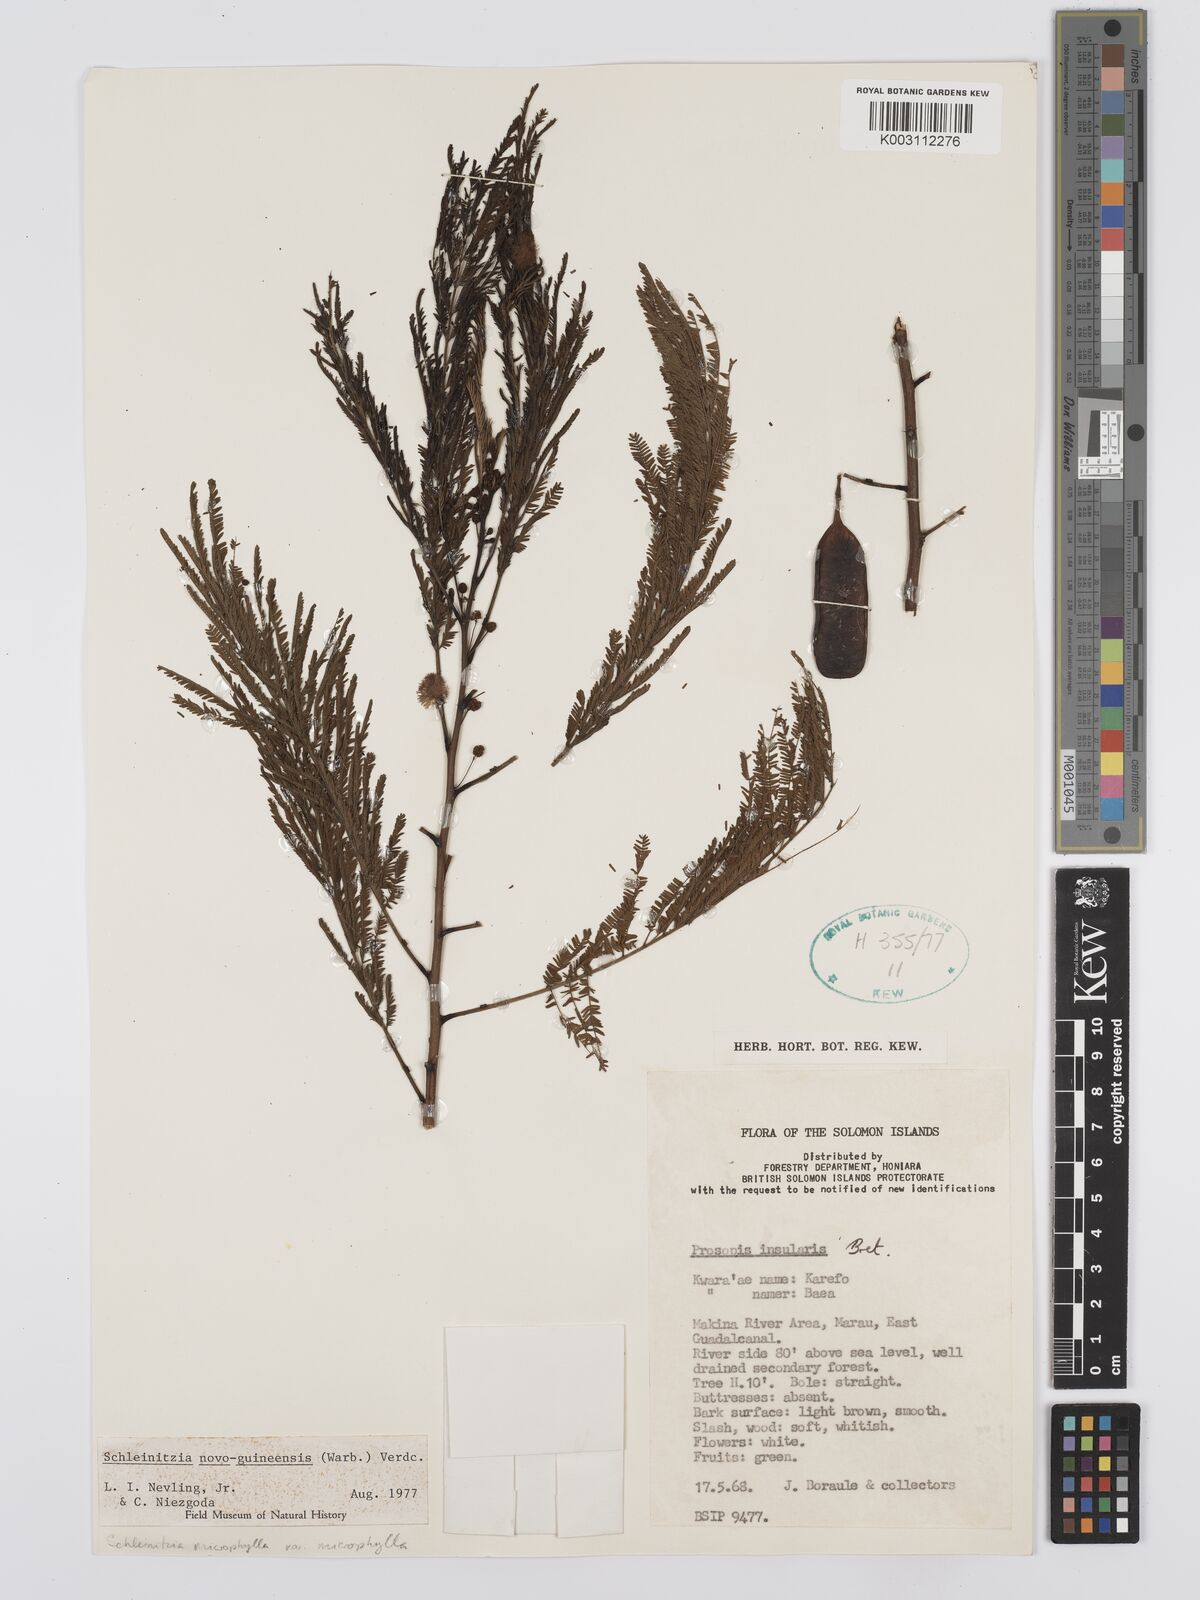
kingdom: Plantae
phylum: Tracheophyta
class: Magnoliopsida
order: Fabales
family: Fabaceae
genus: Schleinitzia
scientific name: Schleinitzia novoguineensis
